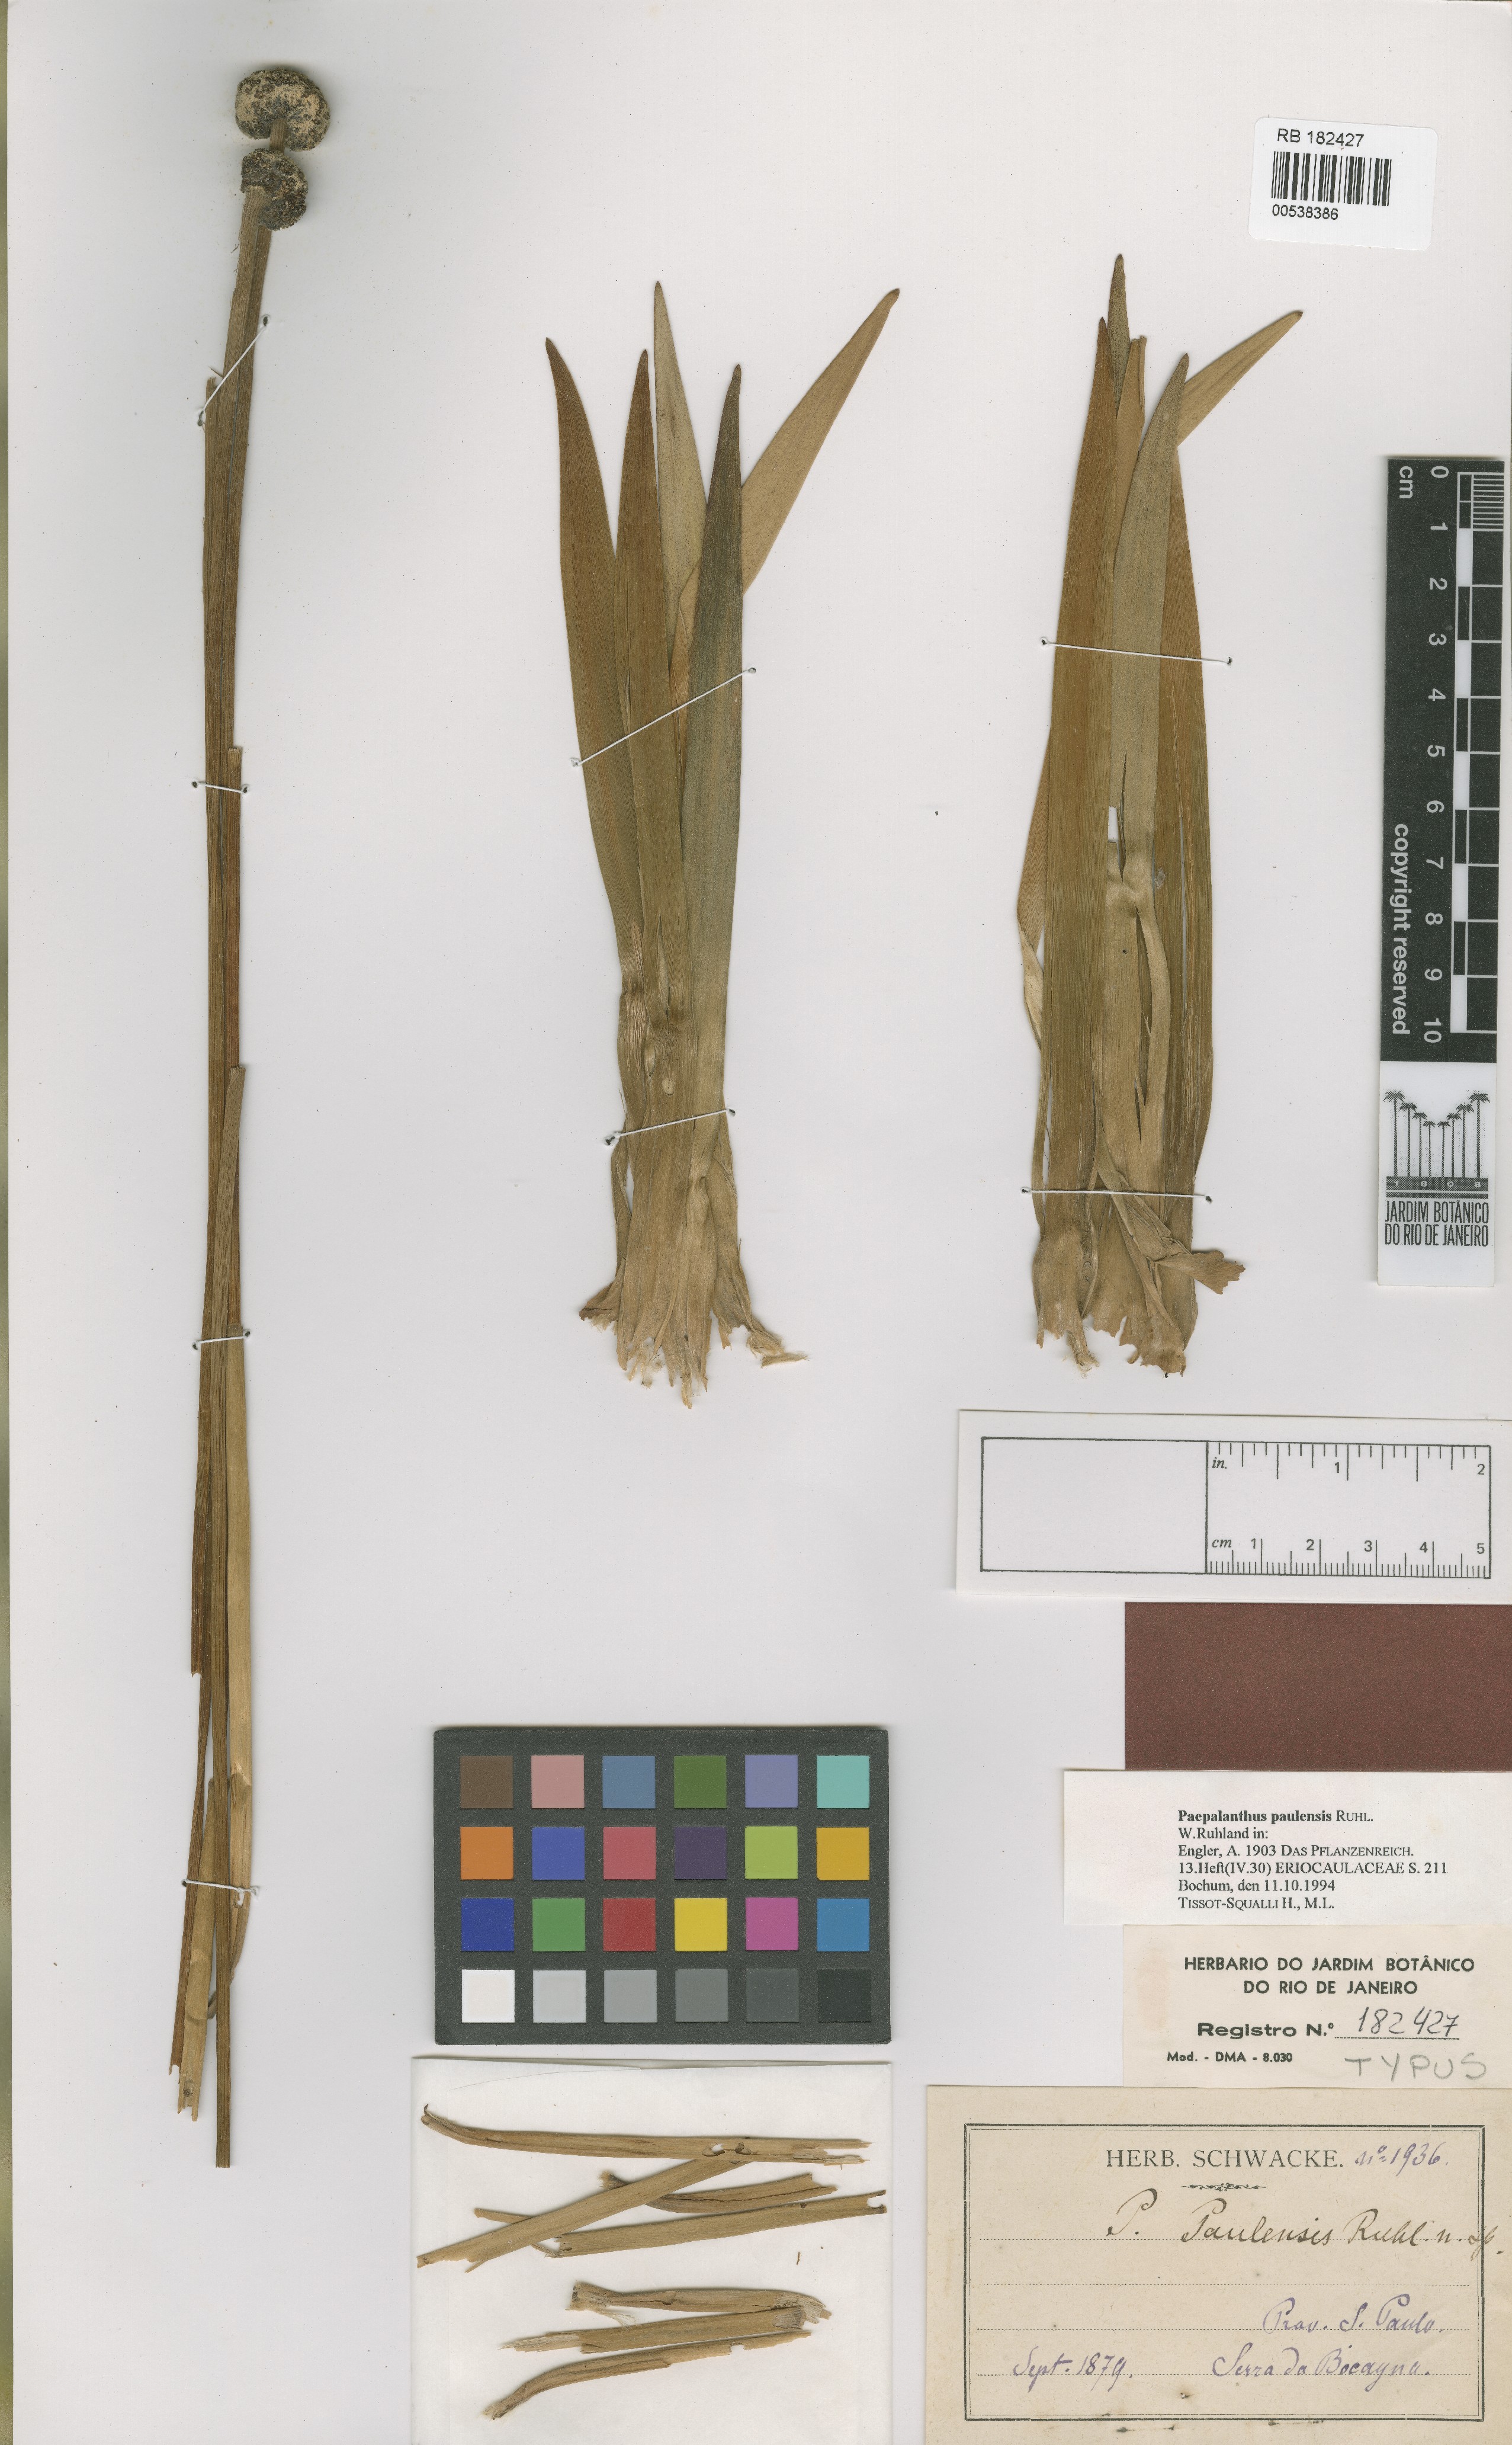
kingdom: Plantae
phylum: Tracheophyta
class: Liliopsida
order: Poales
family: Eriocaulaceae
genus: Paepalanthus
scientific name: Paepalanthus paulensis
